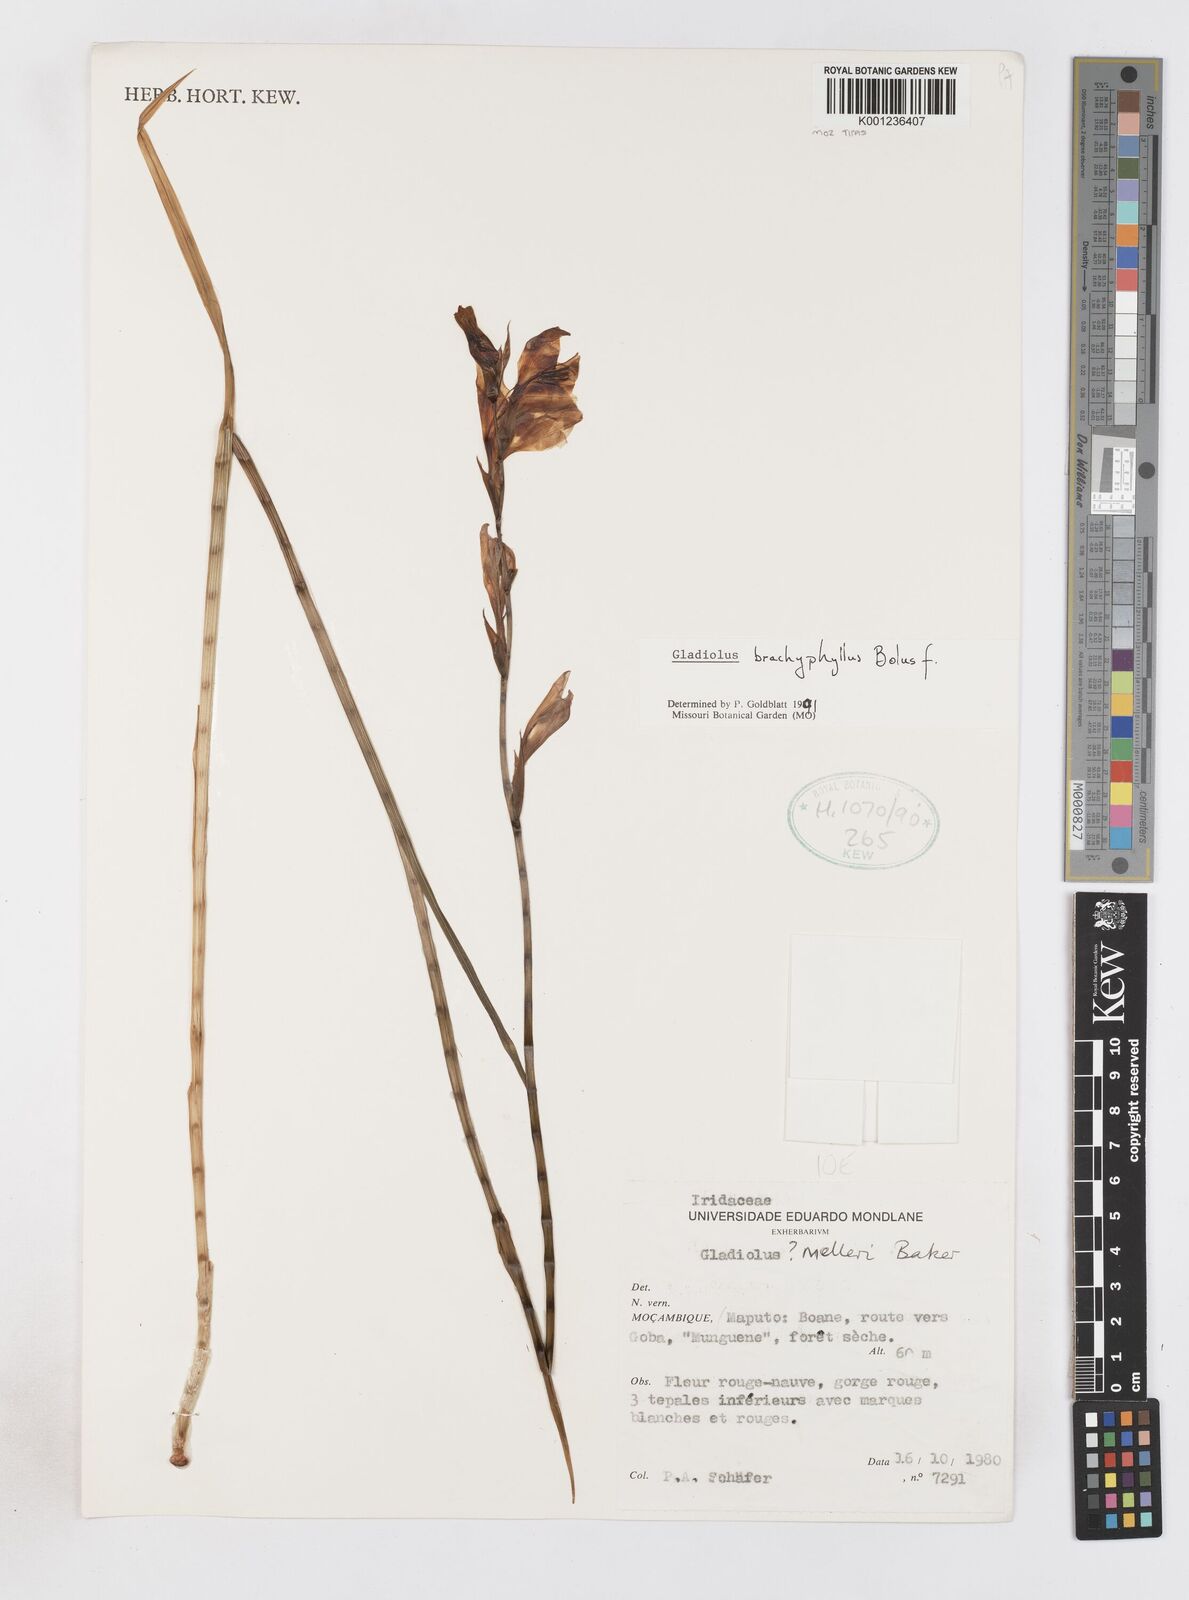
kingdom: Plantae
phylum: Tracheophyta
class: Liliopsida
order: Asparagales
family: Iridaceae
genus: Gladiolus
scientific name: Gladiolus brachyphyllus
